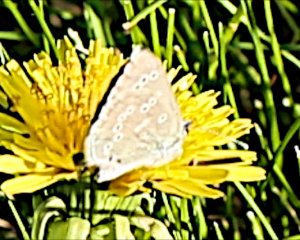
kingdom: Animalia
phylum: Arthropoda
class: Insecta
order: Lepidoptera
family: Lycaenidae
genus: Glaucopsyche
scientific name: Glaucopsyche lygdamus
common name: Silvery Blue
